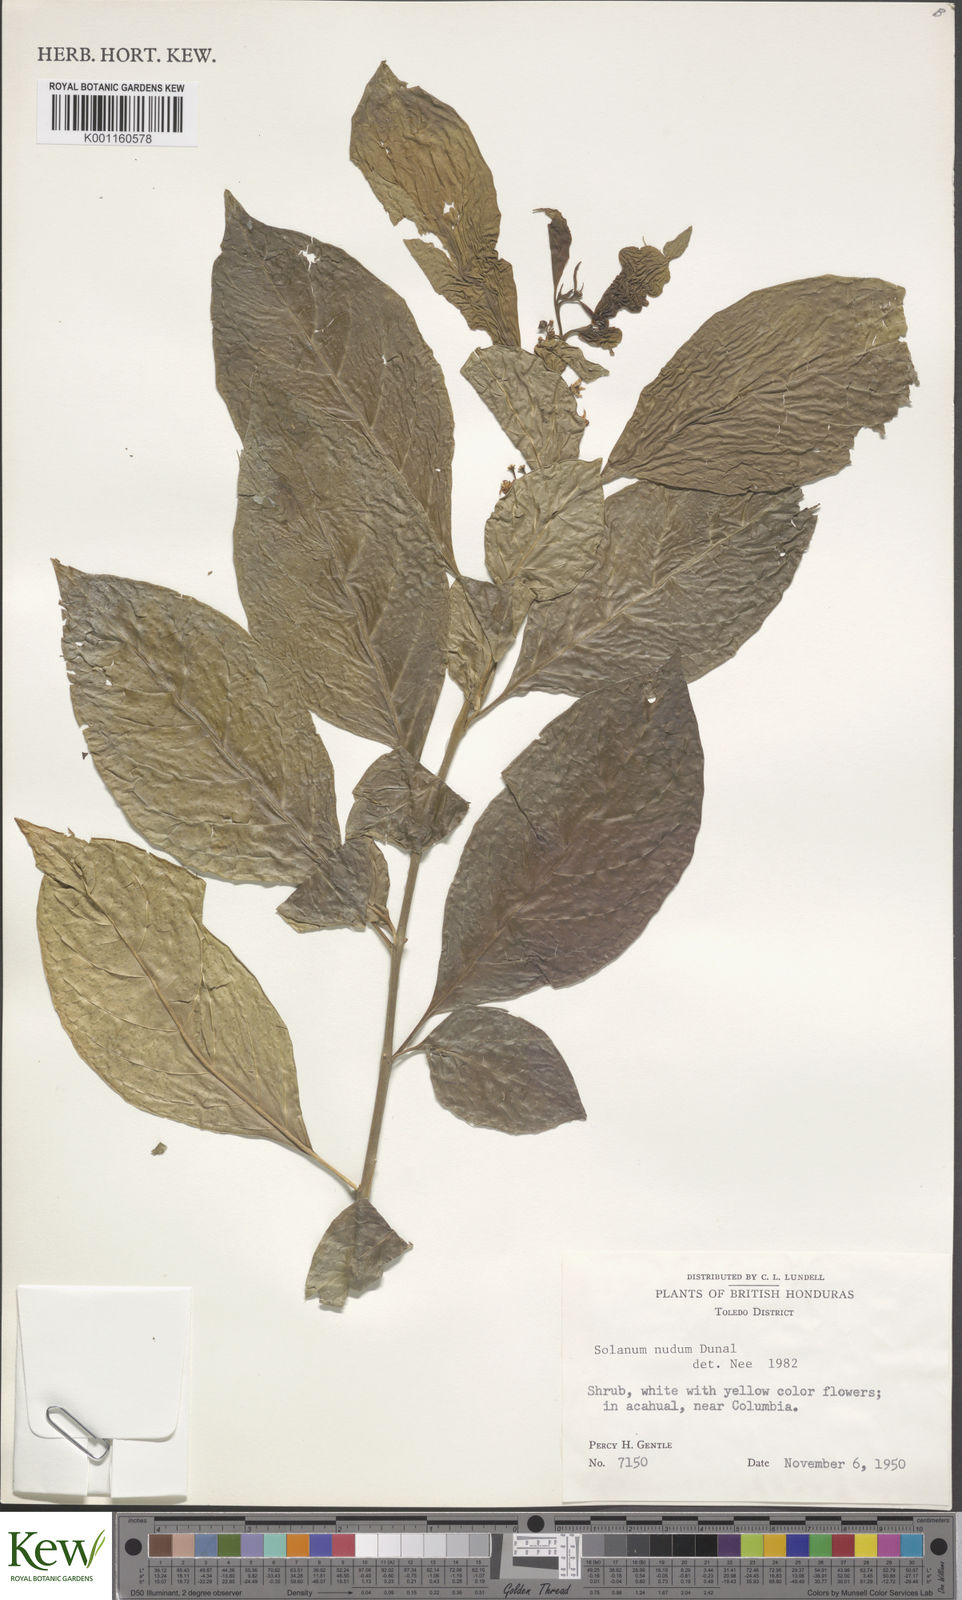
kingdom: Plantae
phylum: Tracheophyta
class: Magnoliopsida
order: Solanales
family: Solanaceae
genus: Solanum
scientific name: Solanum nudum
